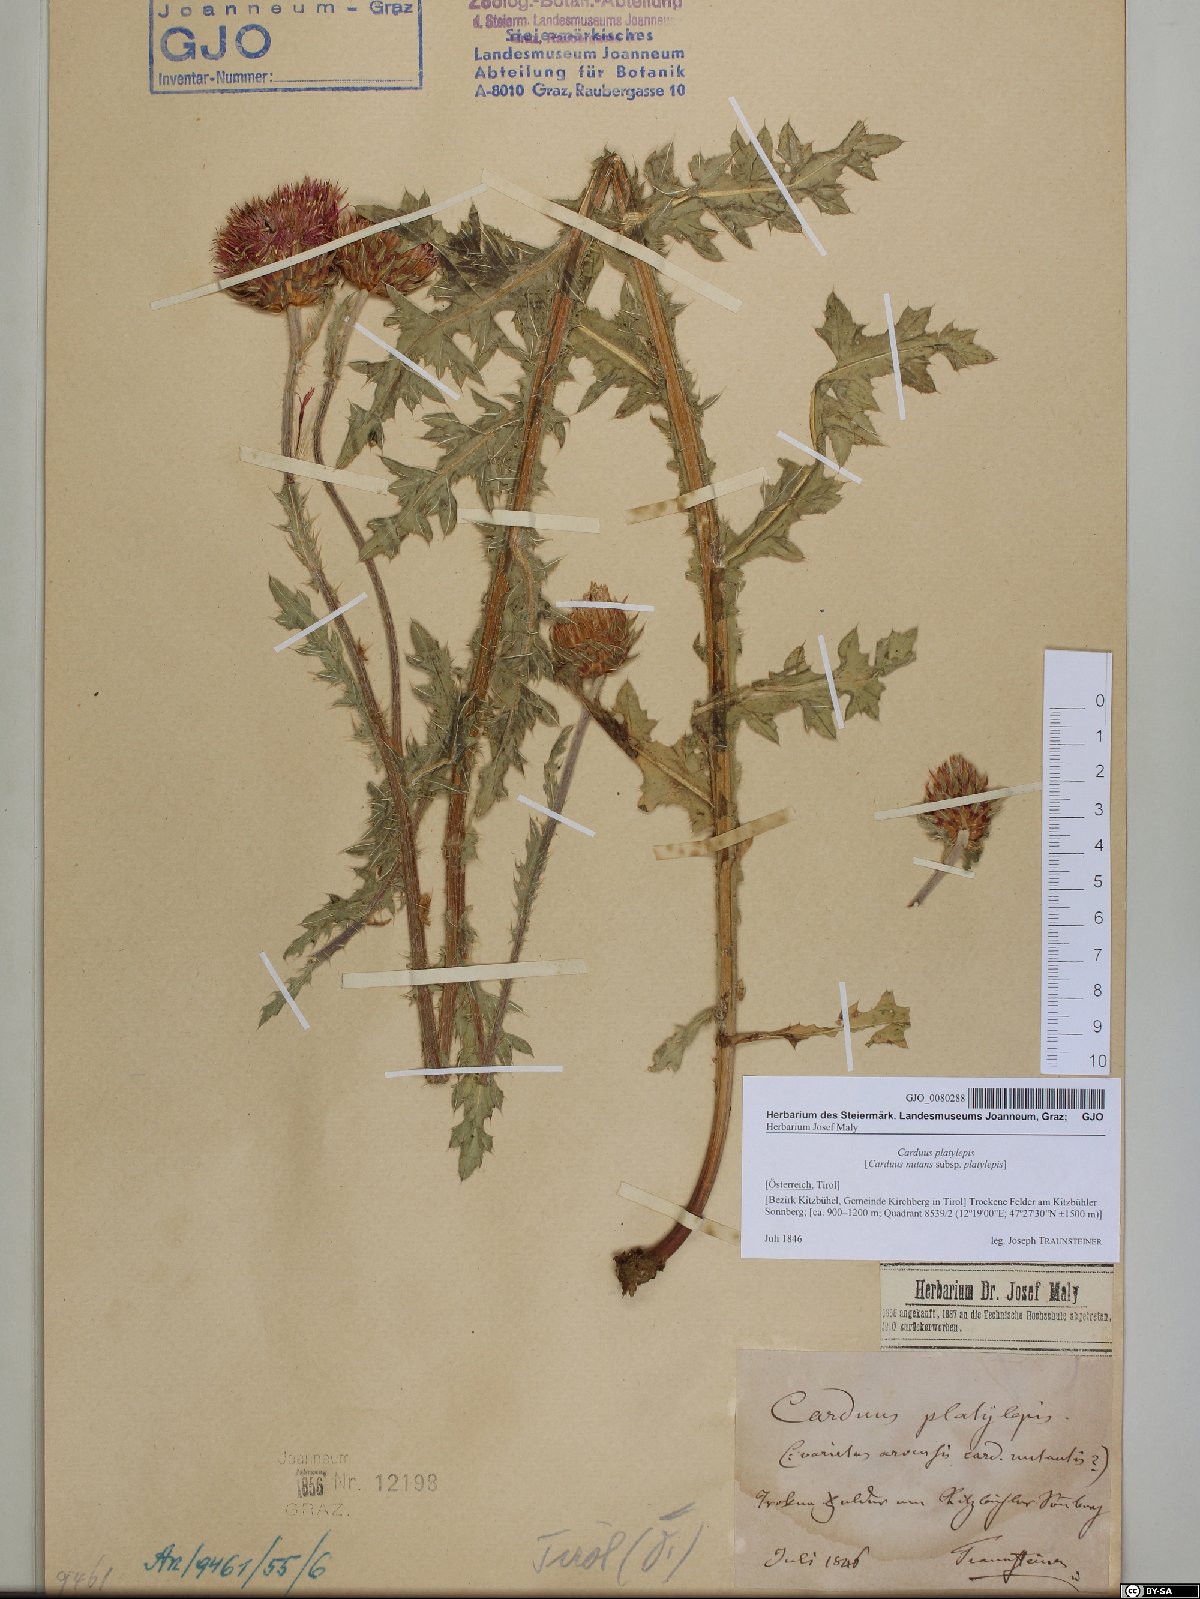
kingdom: Plantae
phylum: Tracheophyta
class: Magnoliopsida
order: Asterales
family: Asteraceae
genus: Carduus
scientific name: Carduus nutans
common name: Musk thistle
